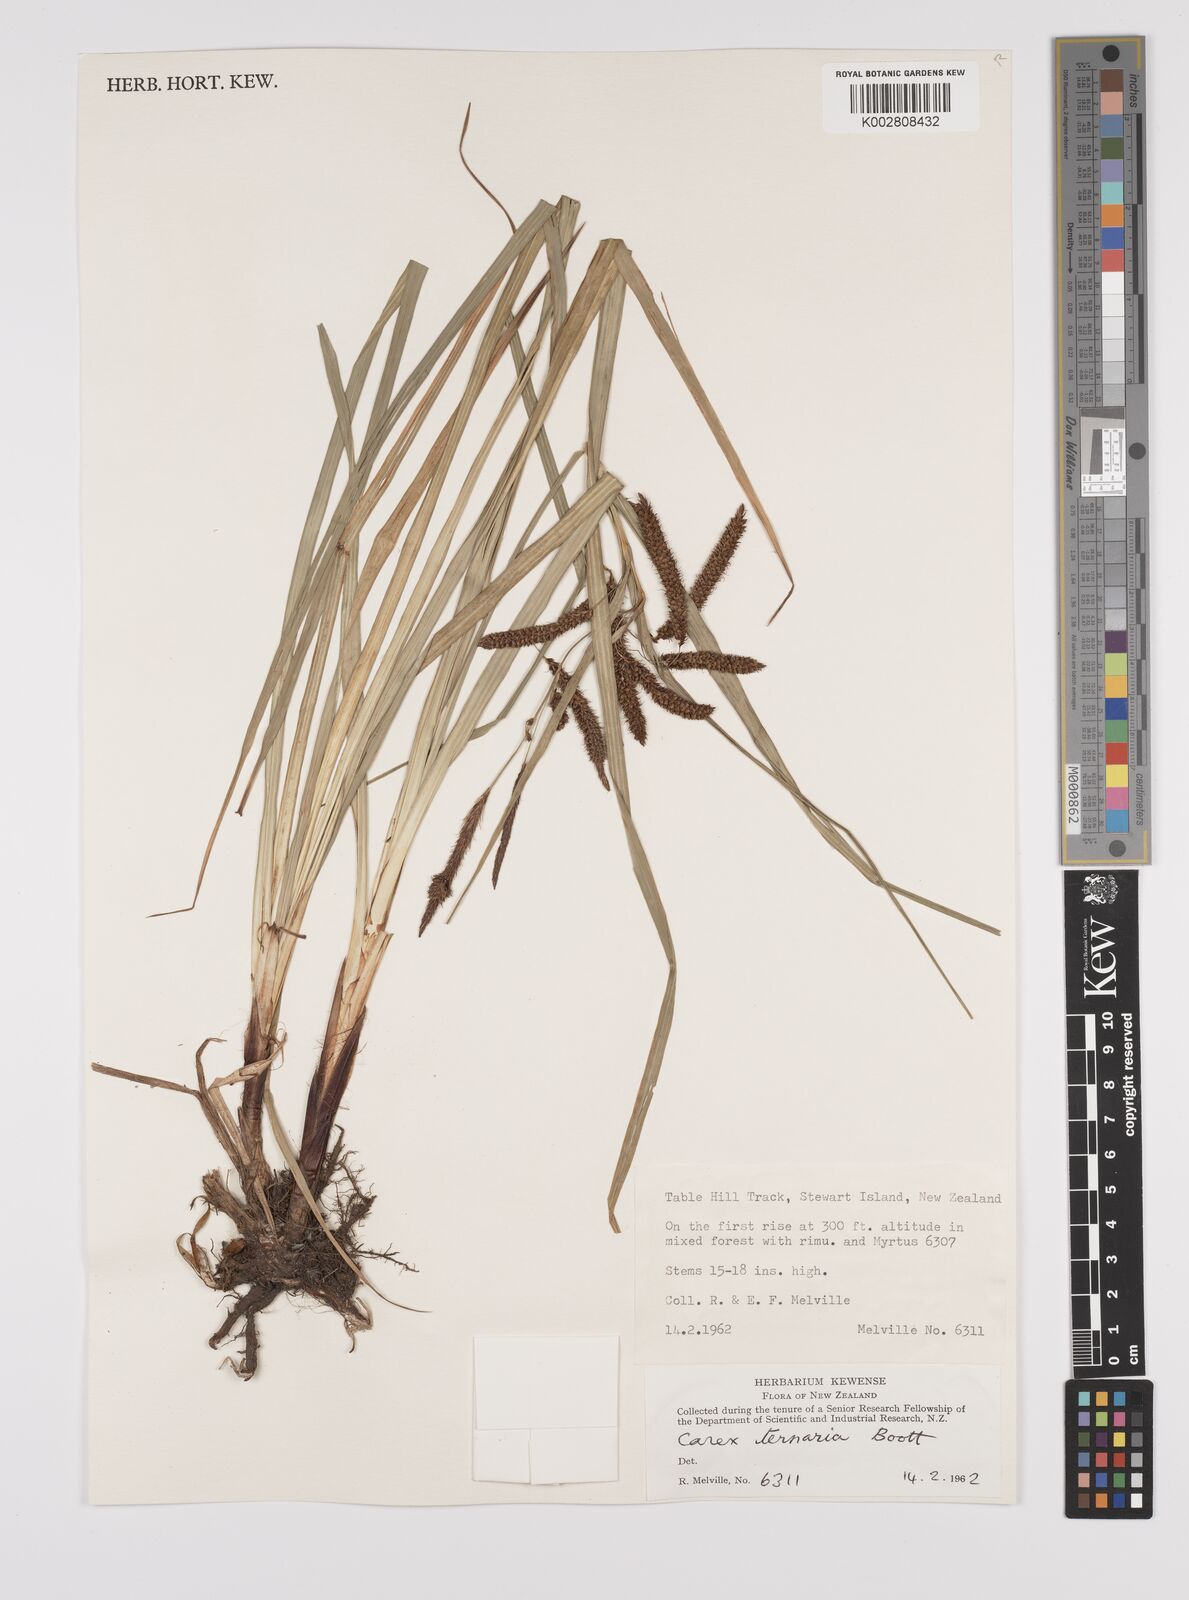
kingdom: Plantae
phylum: Tracheophyta
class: Liliopsida
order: Poales
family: Cyperaceae
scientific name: Cyperaceae
